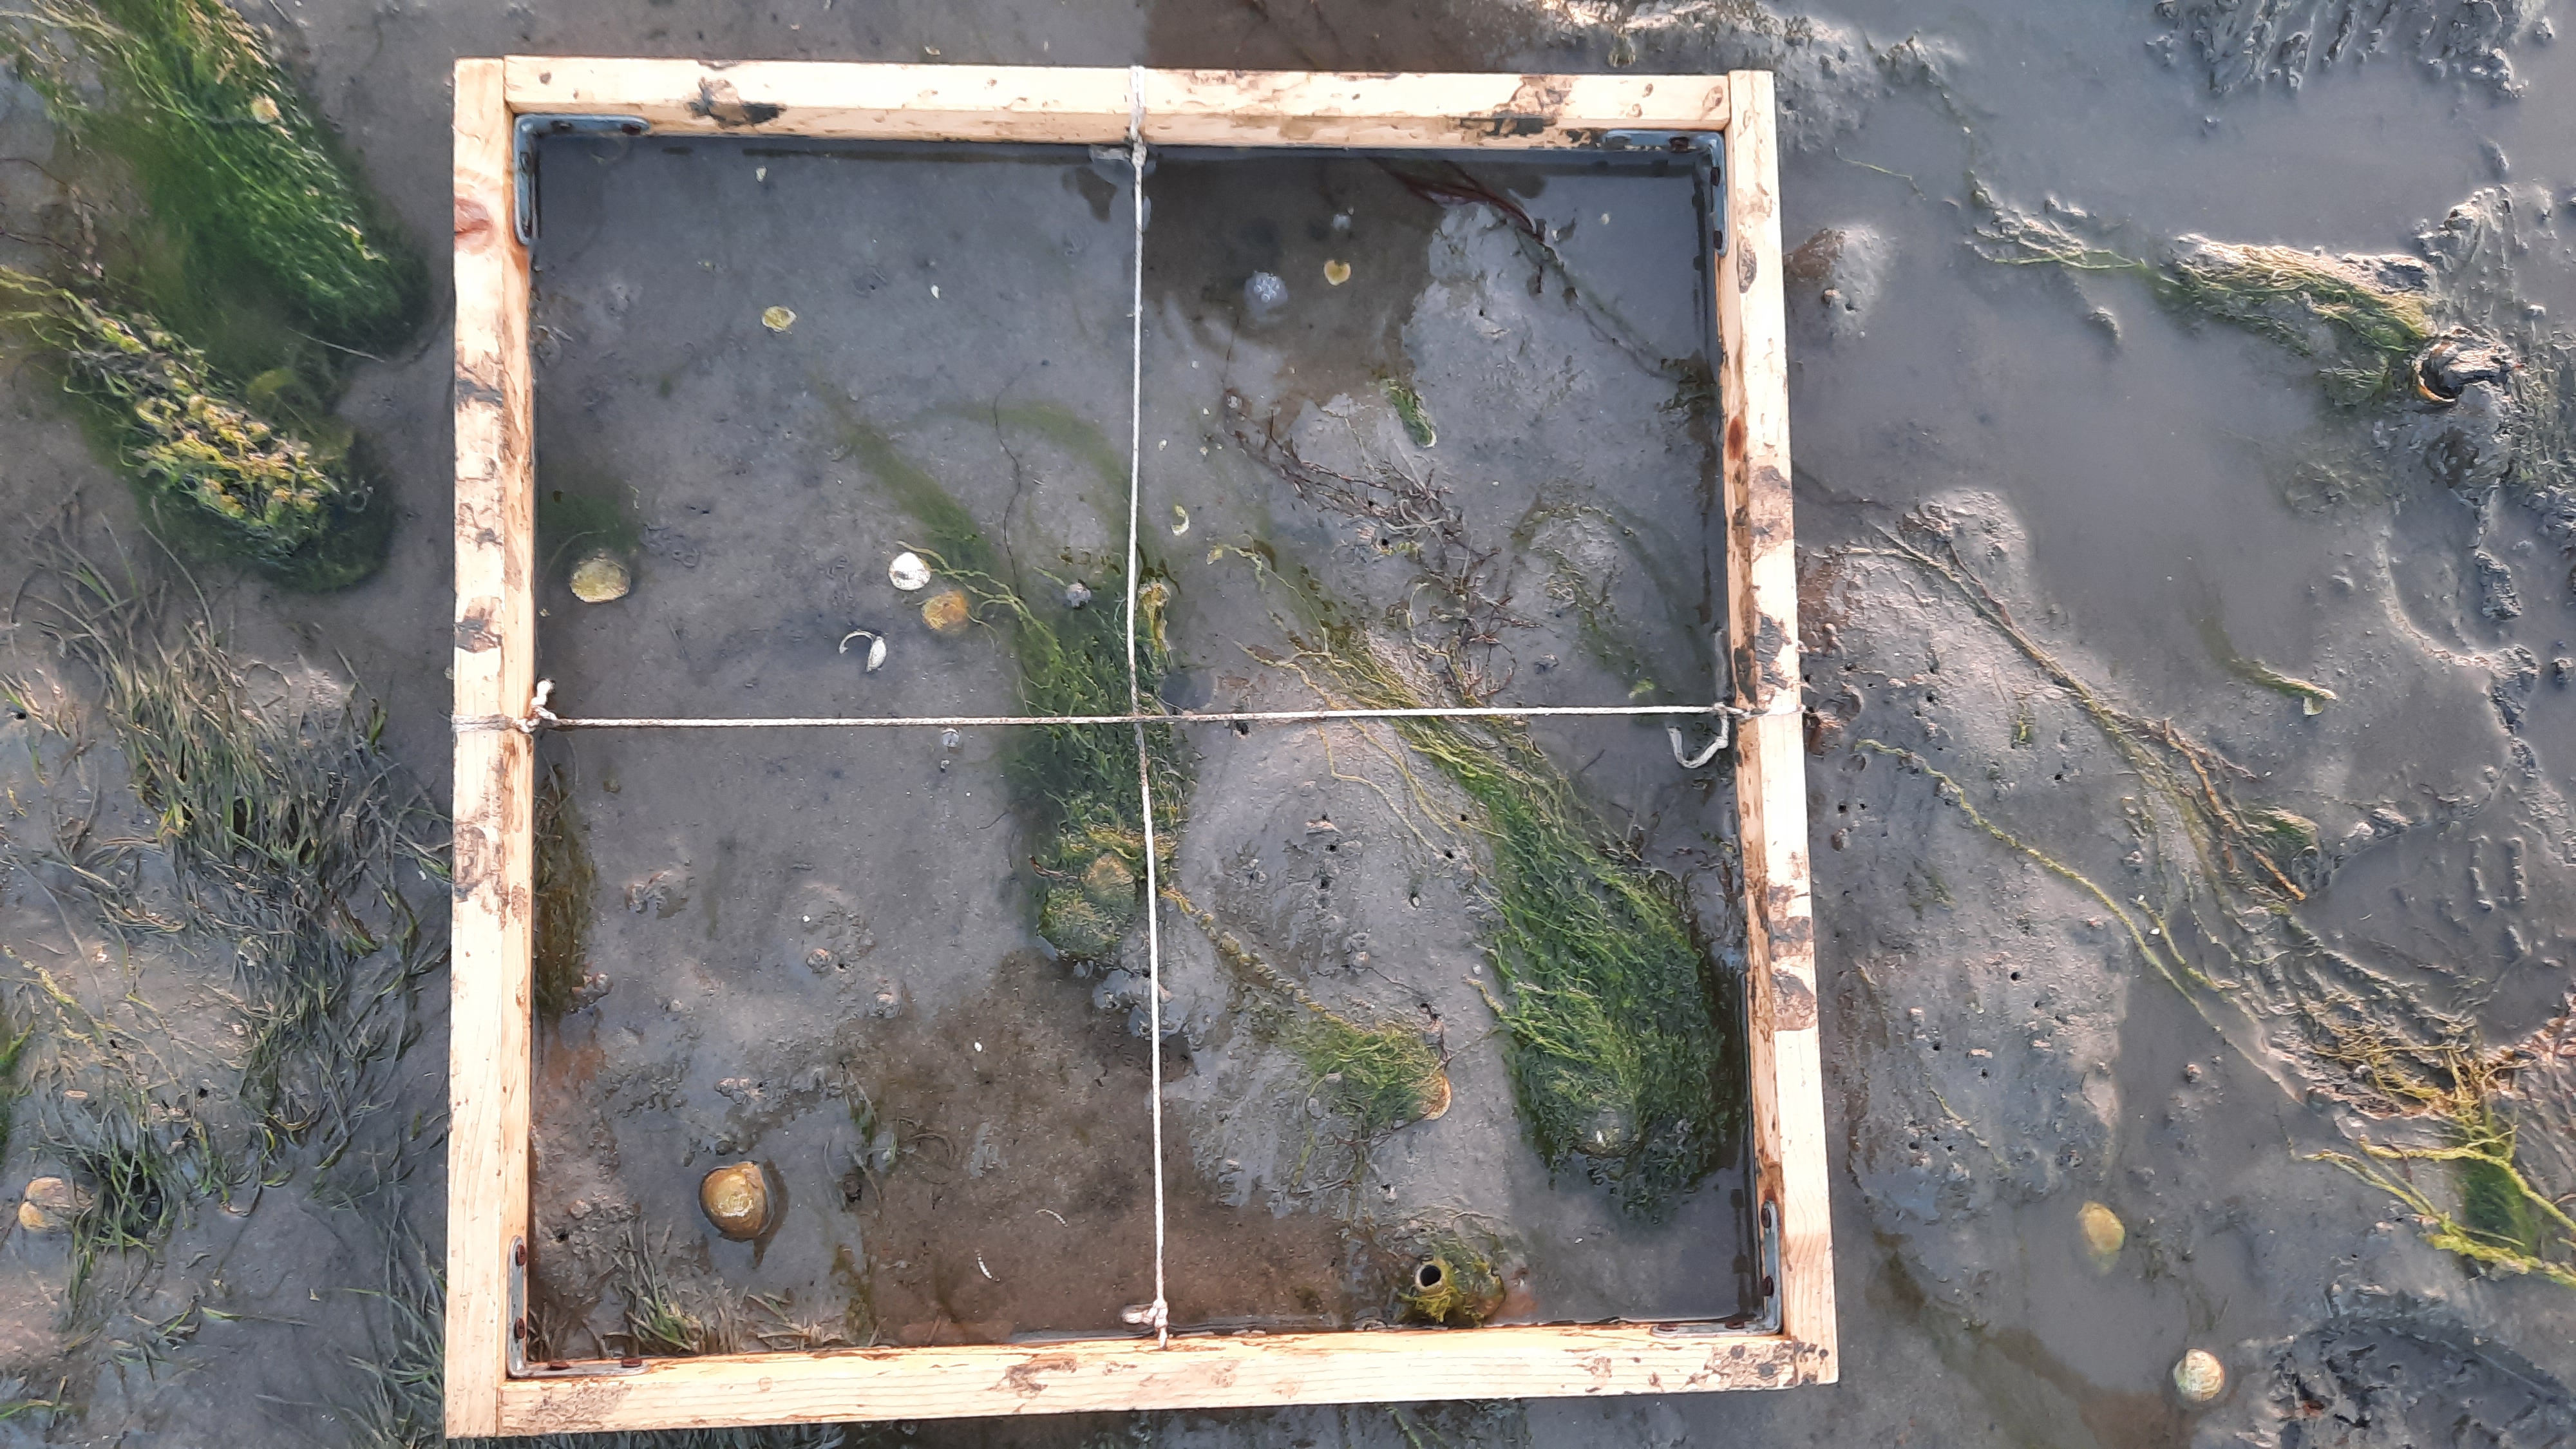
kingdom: Plantae
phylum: Chlorophyta
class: Ulvophyceae
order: Ulvales
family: Ulvaceae
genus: Ulva
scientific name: Ulva
